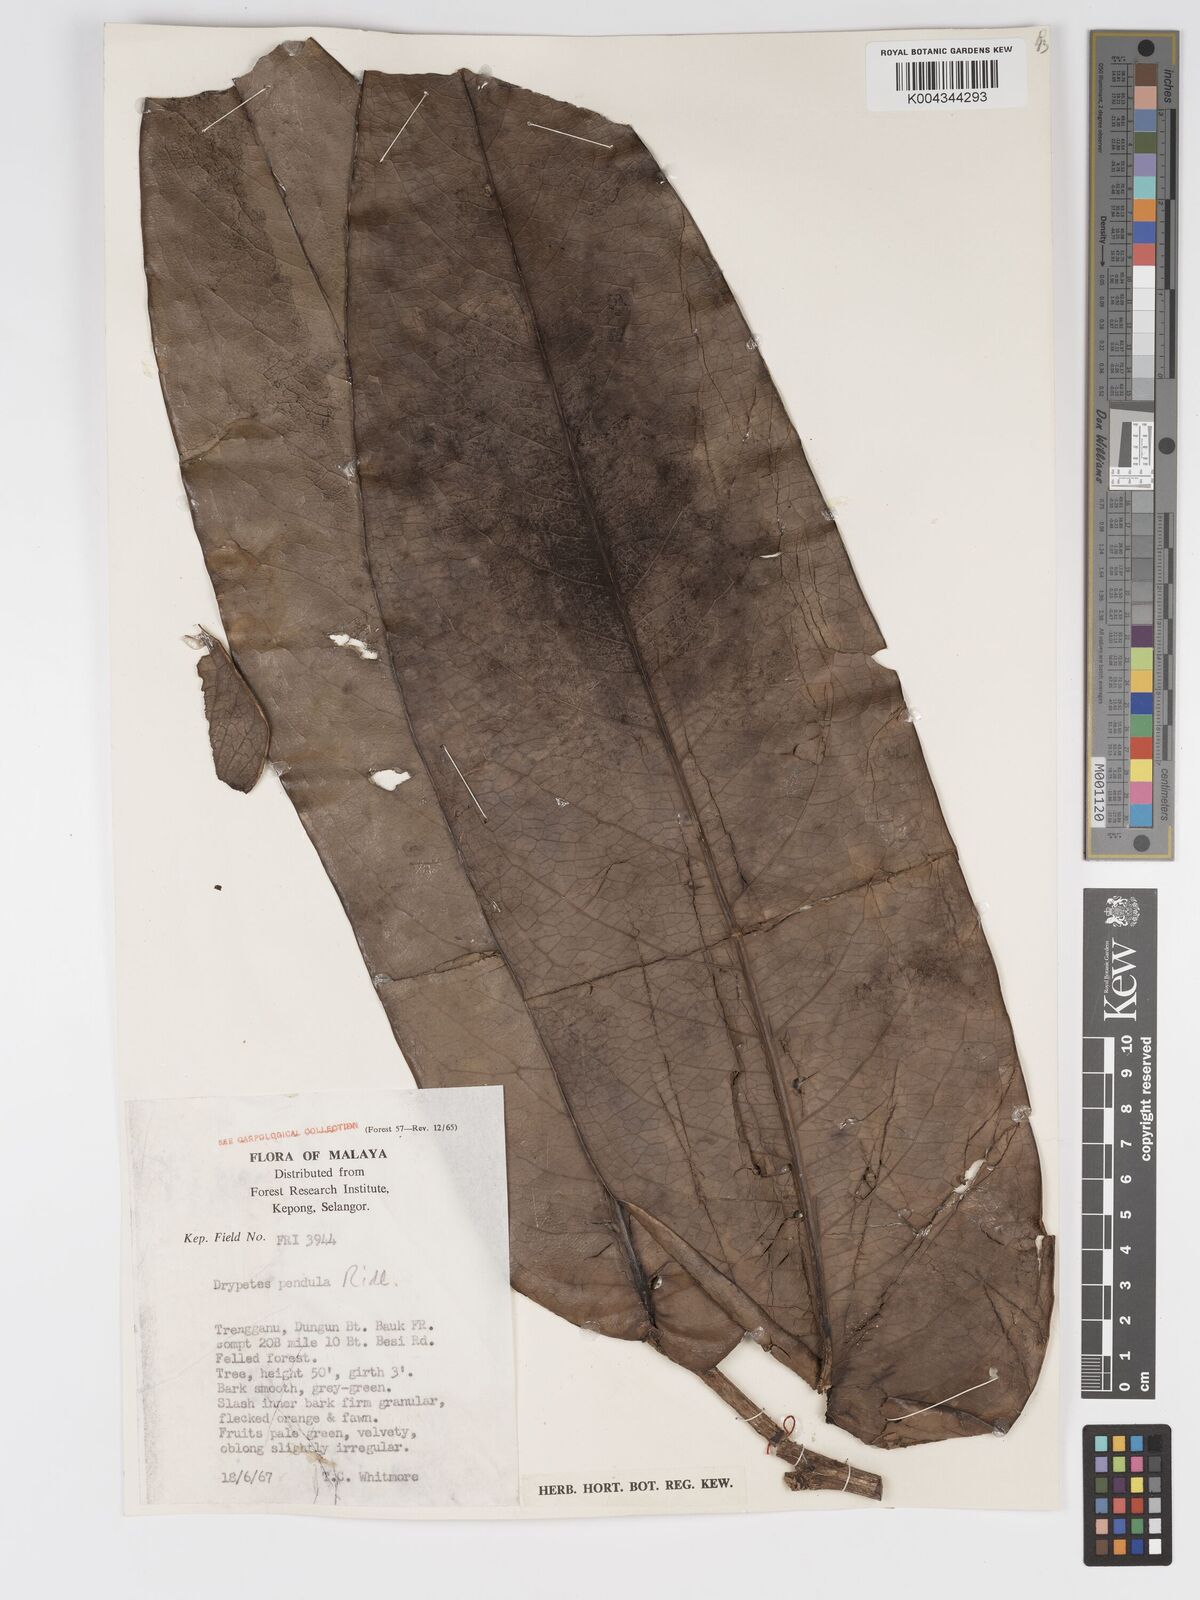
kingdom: Plantae
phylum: Tracheophyta
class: Magnoliopsida
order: Malpighiales
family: Putranjivaceae
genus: Drypetes
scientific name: Drypetes pendula
